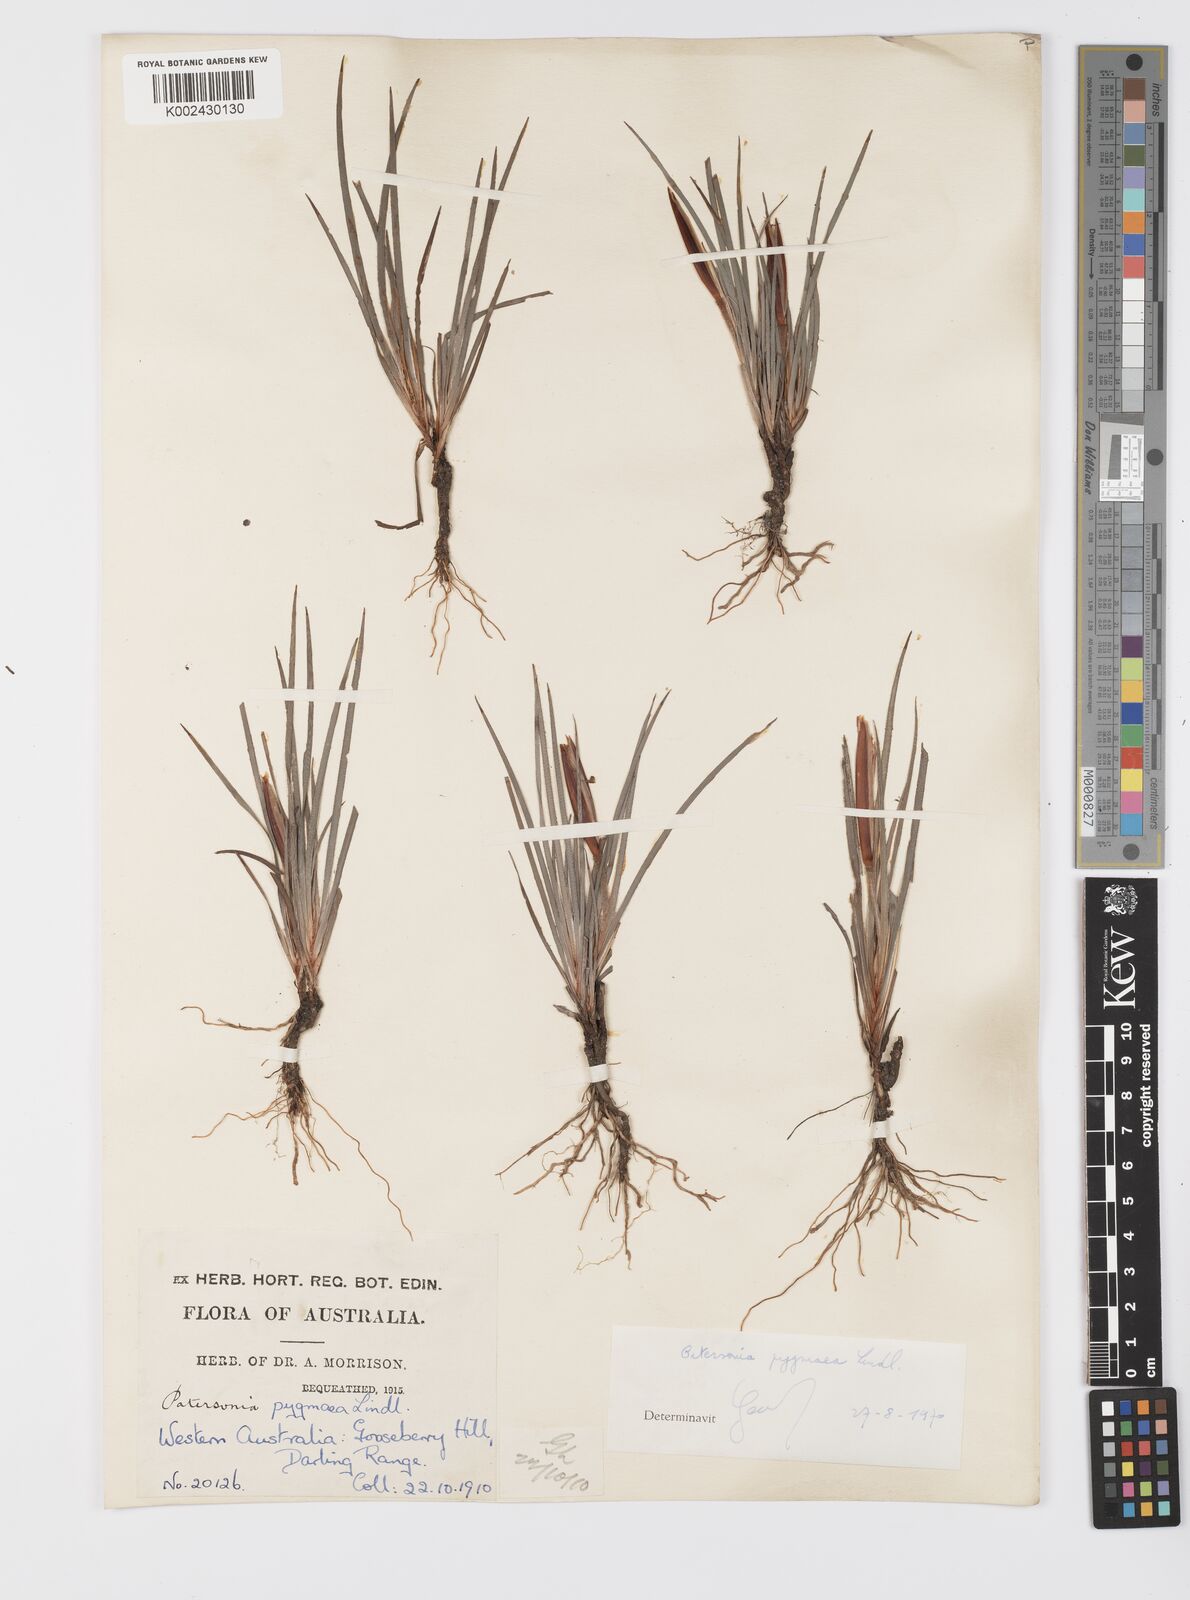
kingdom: Plantae
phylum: Tracheophyta
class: Liliopsida
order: Asparagales
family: Iridaceae
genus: Patersonia
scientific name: Patersonia pygmaea
